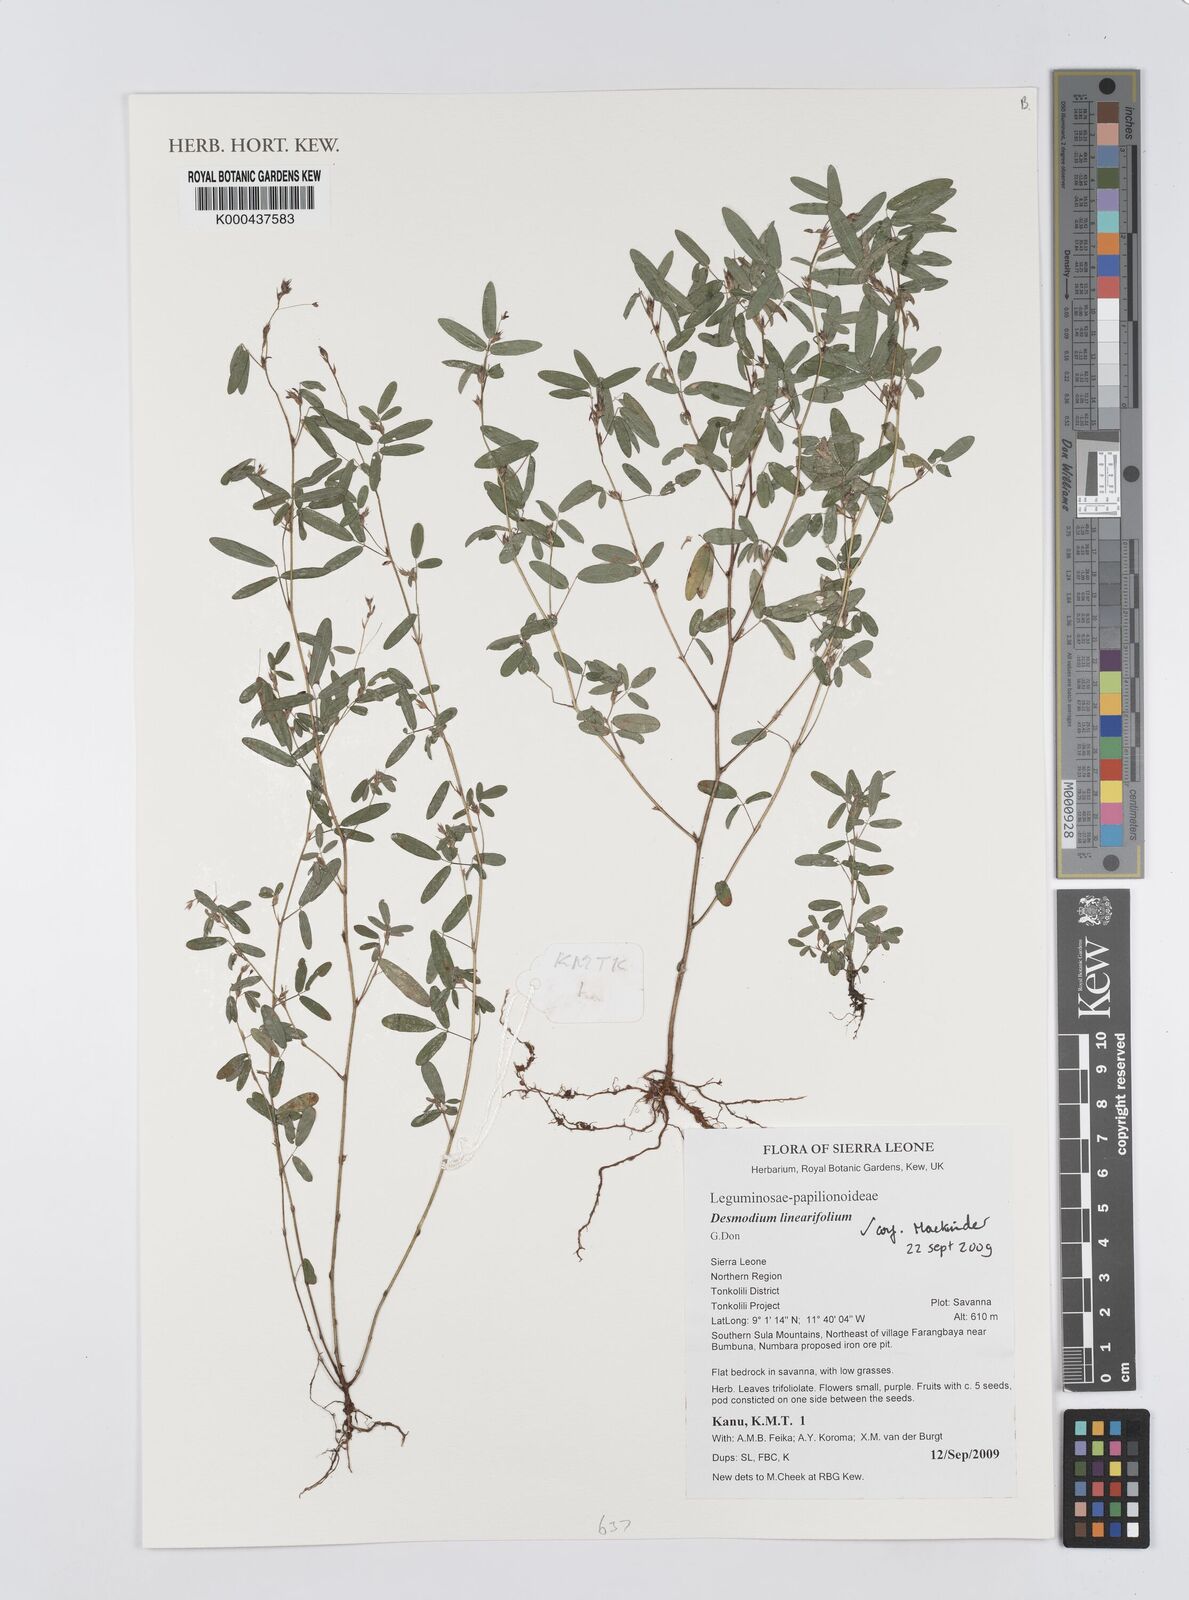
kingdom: Plantae
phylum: Tracheophyta
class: Magnoliopsida
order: Malpighiales
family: Euphorbiaceae
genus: Acalypha
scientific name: Acalypha guineensis
